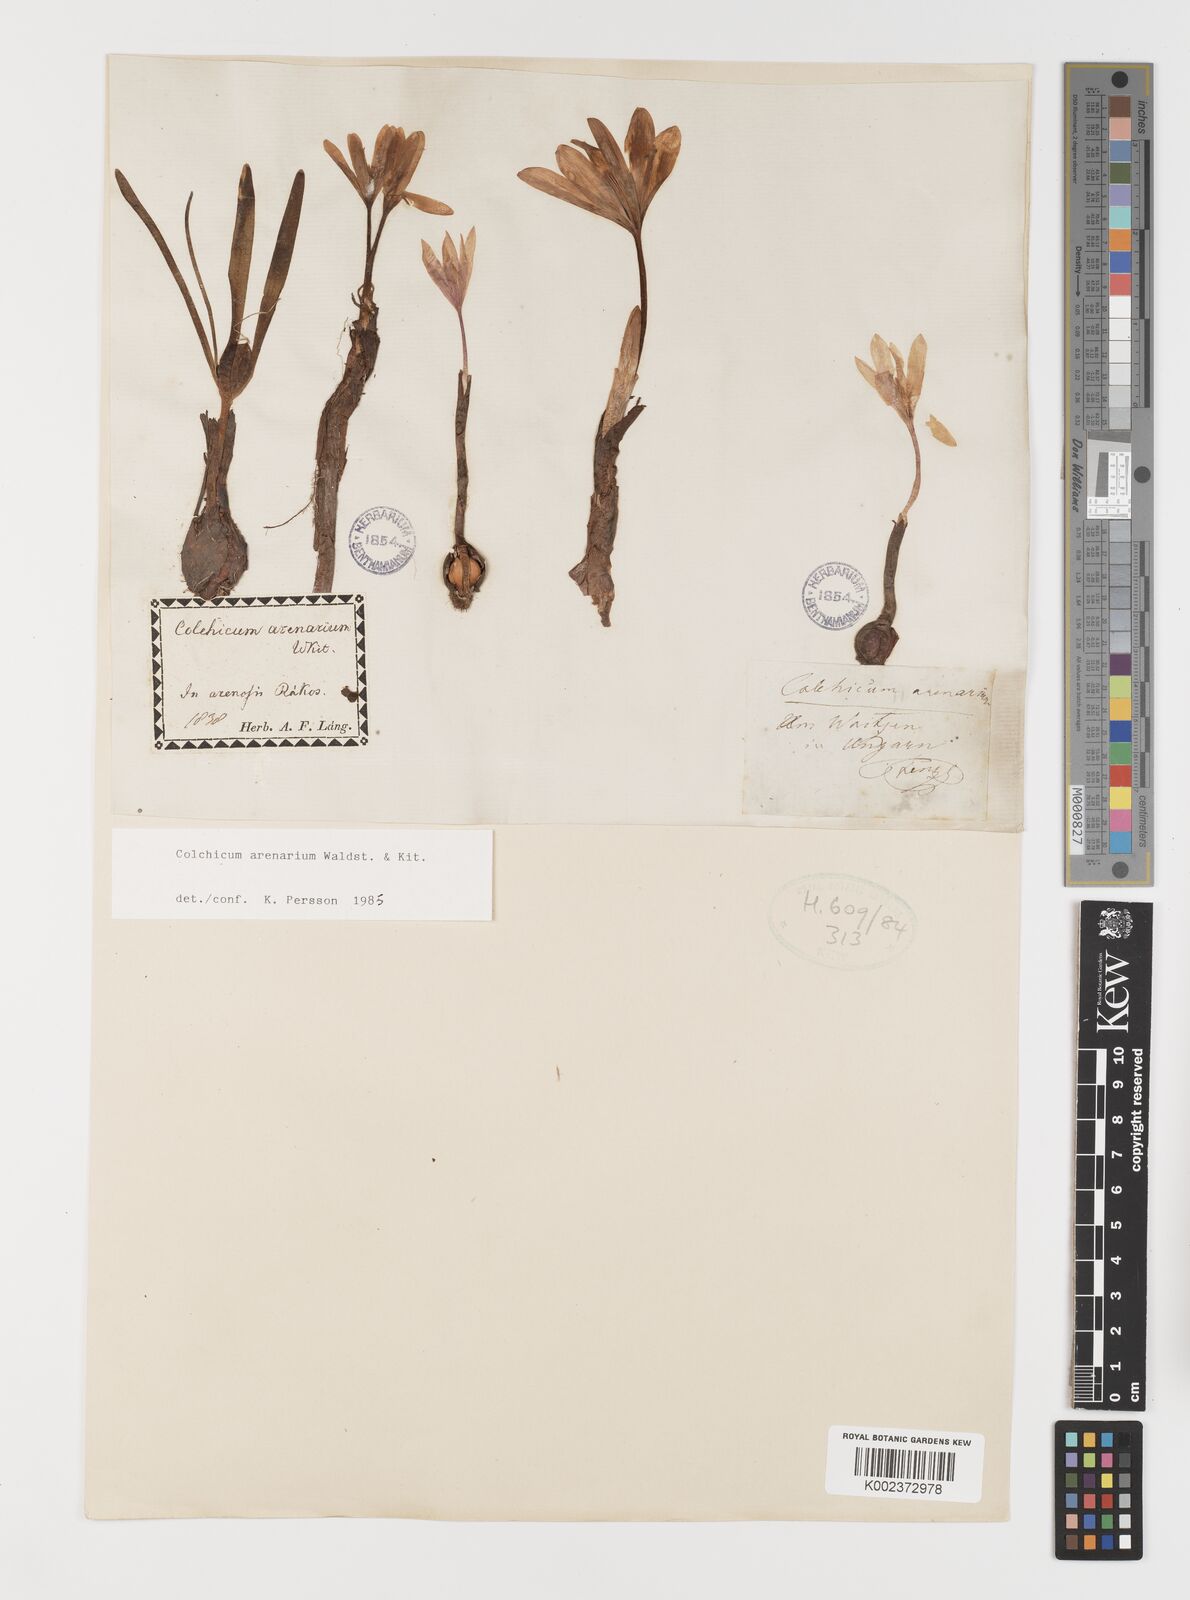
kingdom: Plantae
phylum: Tracheophyta
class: Liliopsida
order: Liliales
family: Colchicaceae
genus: Colchicum
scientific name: Colchicum arenarium
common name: Sand saffron
